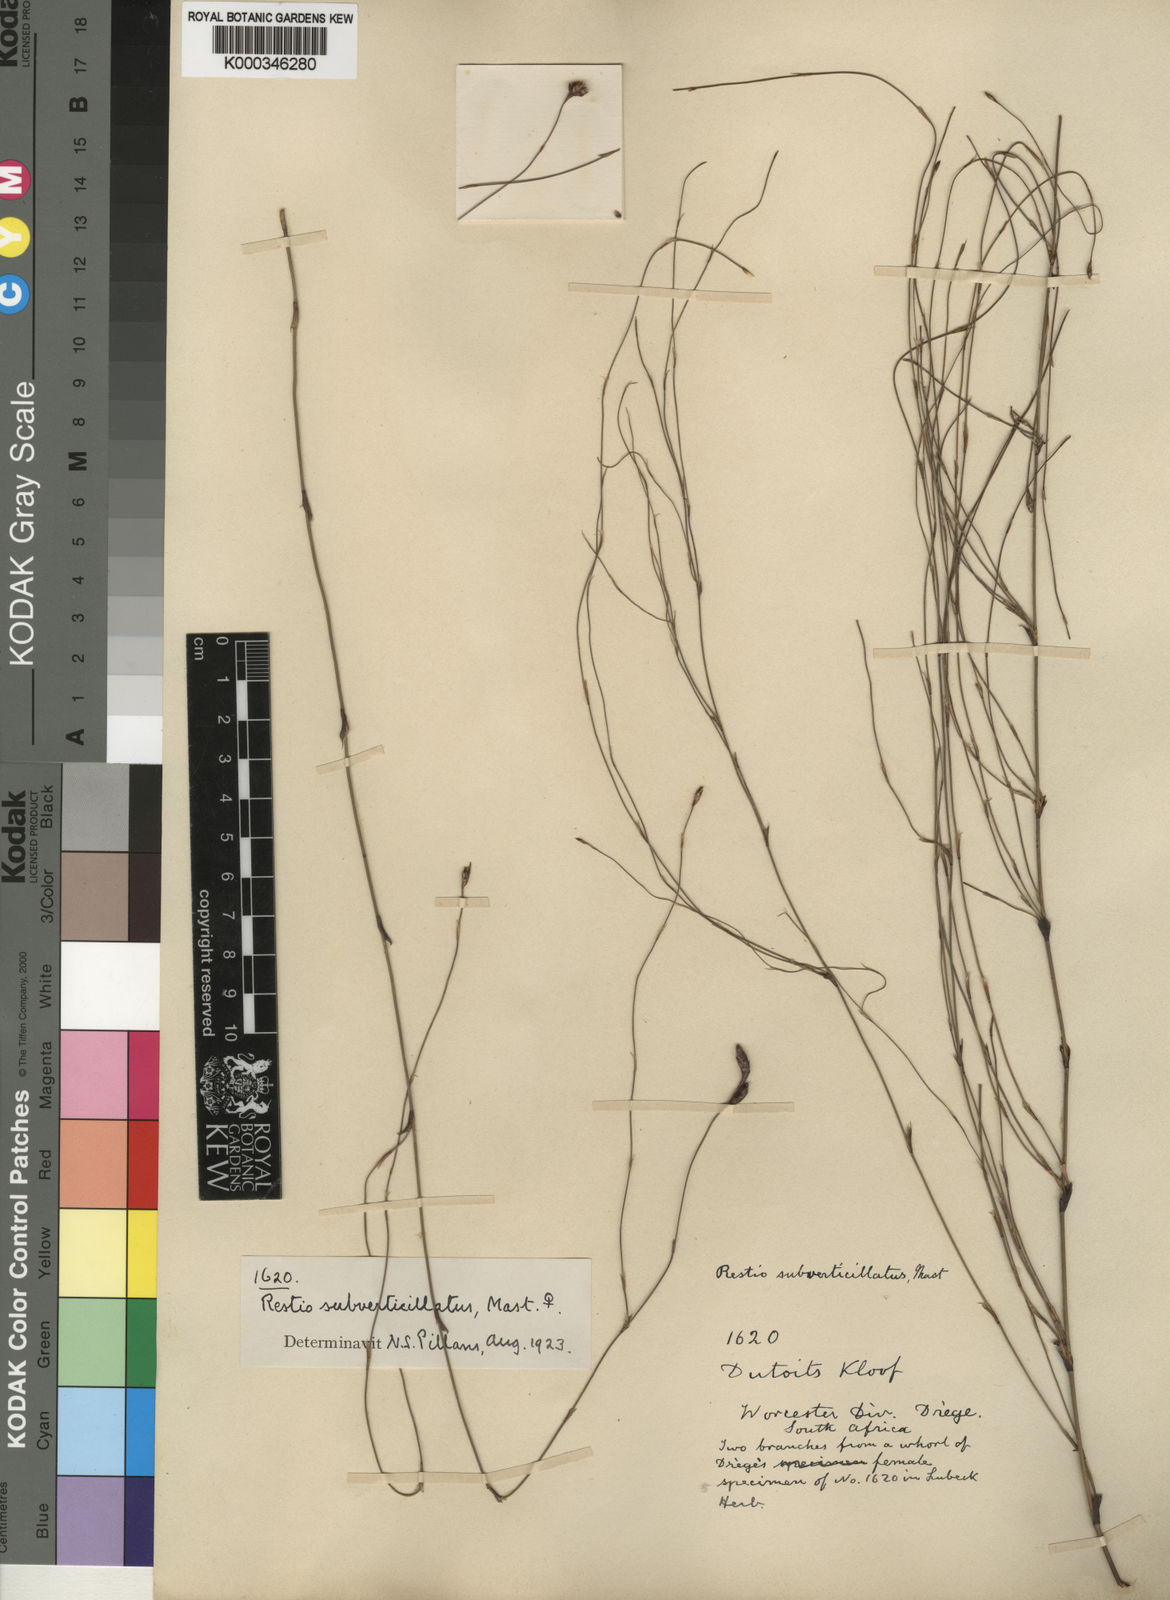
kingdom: Plantae
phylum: Tracheophyta
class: Liliopsida
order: Poales
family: Restionaceae
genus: Restio
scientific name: Restio subverticillatus
